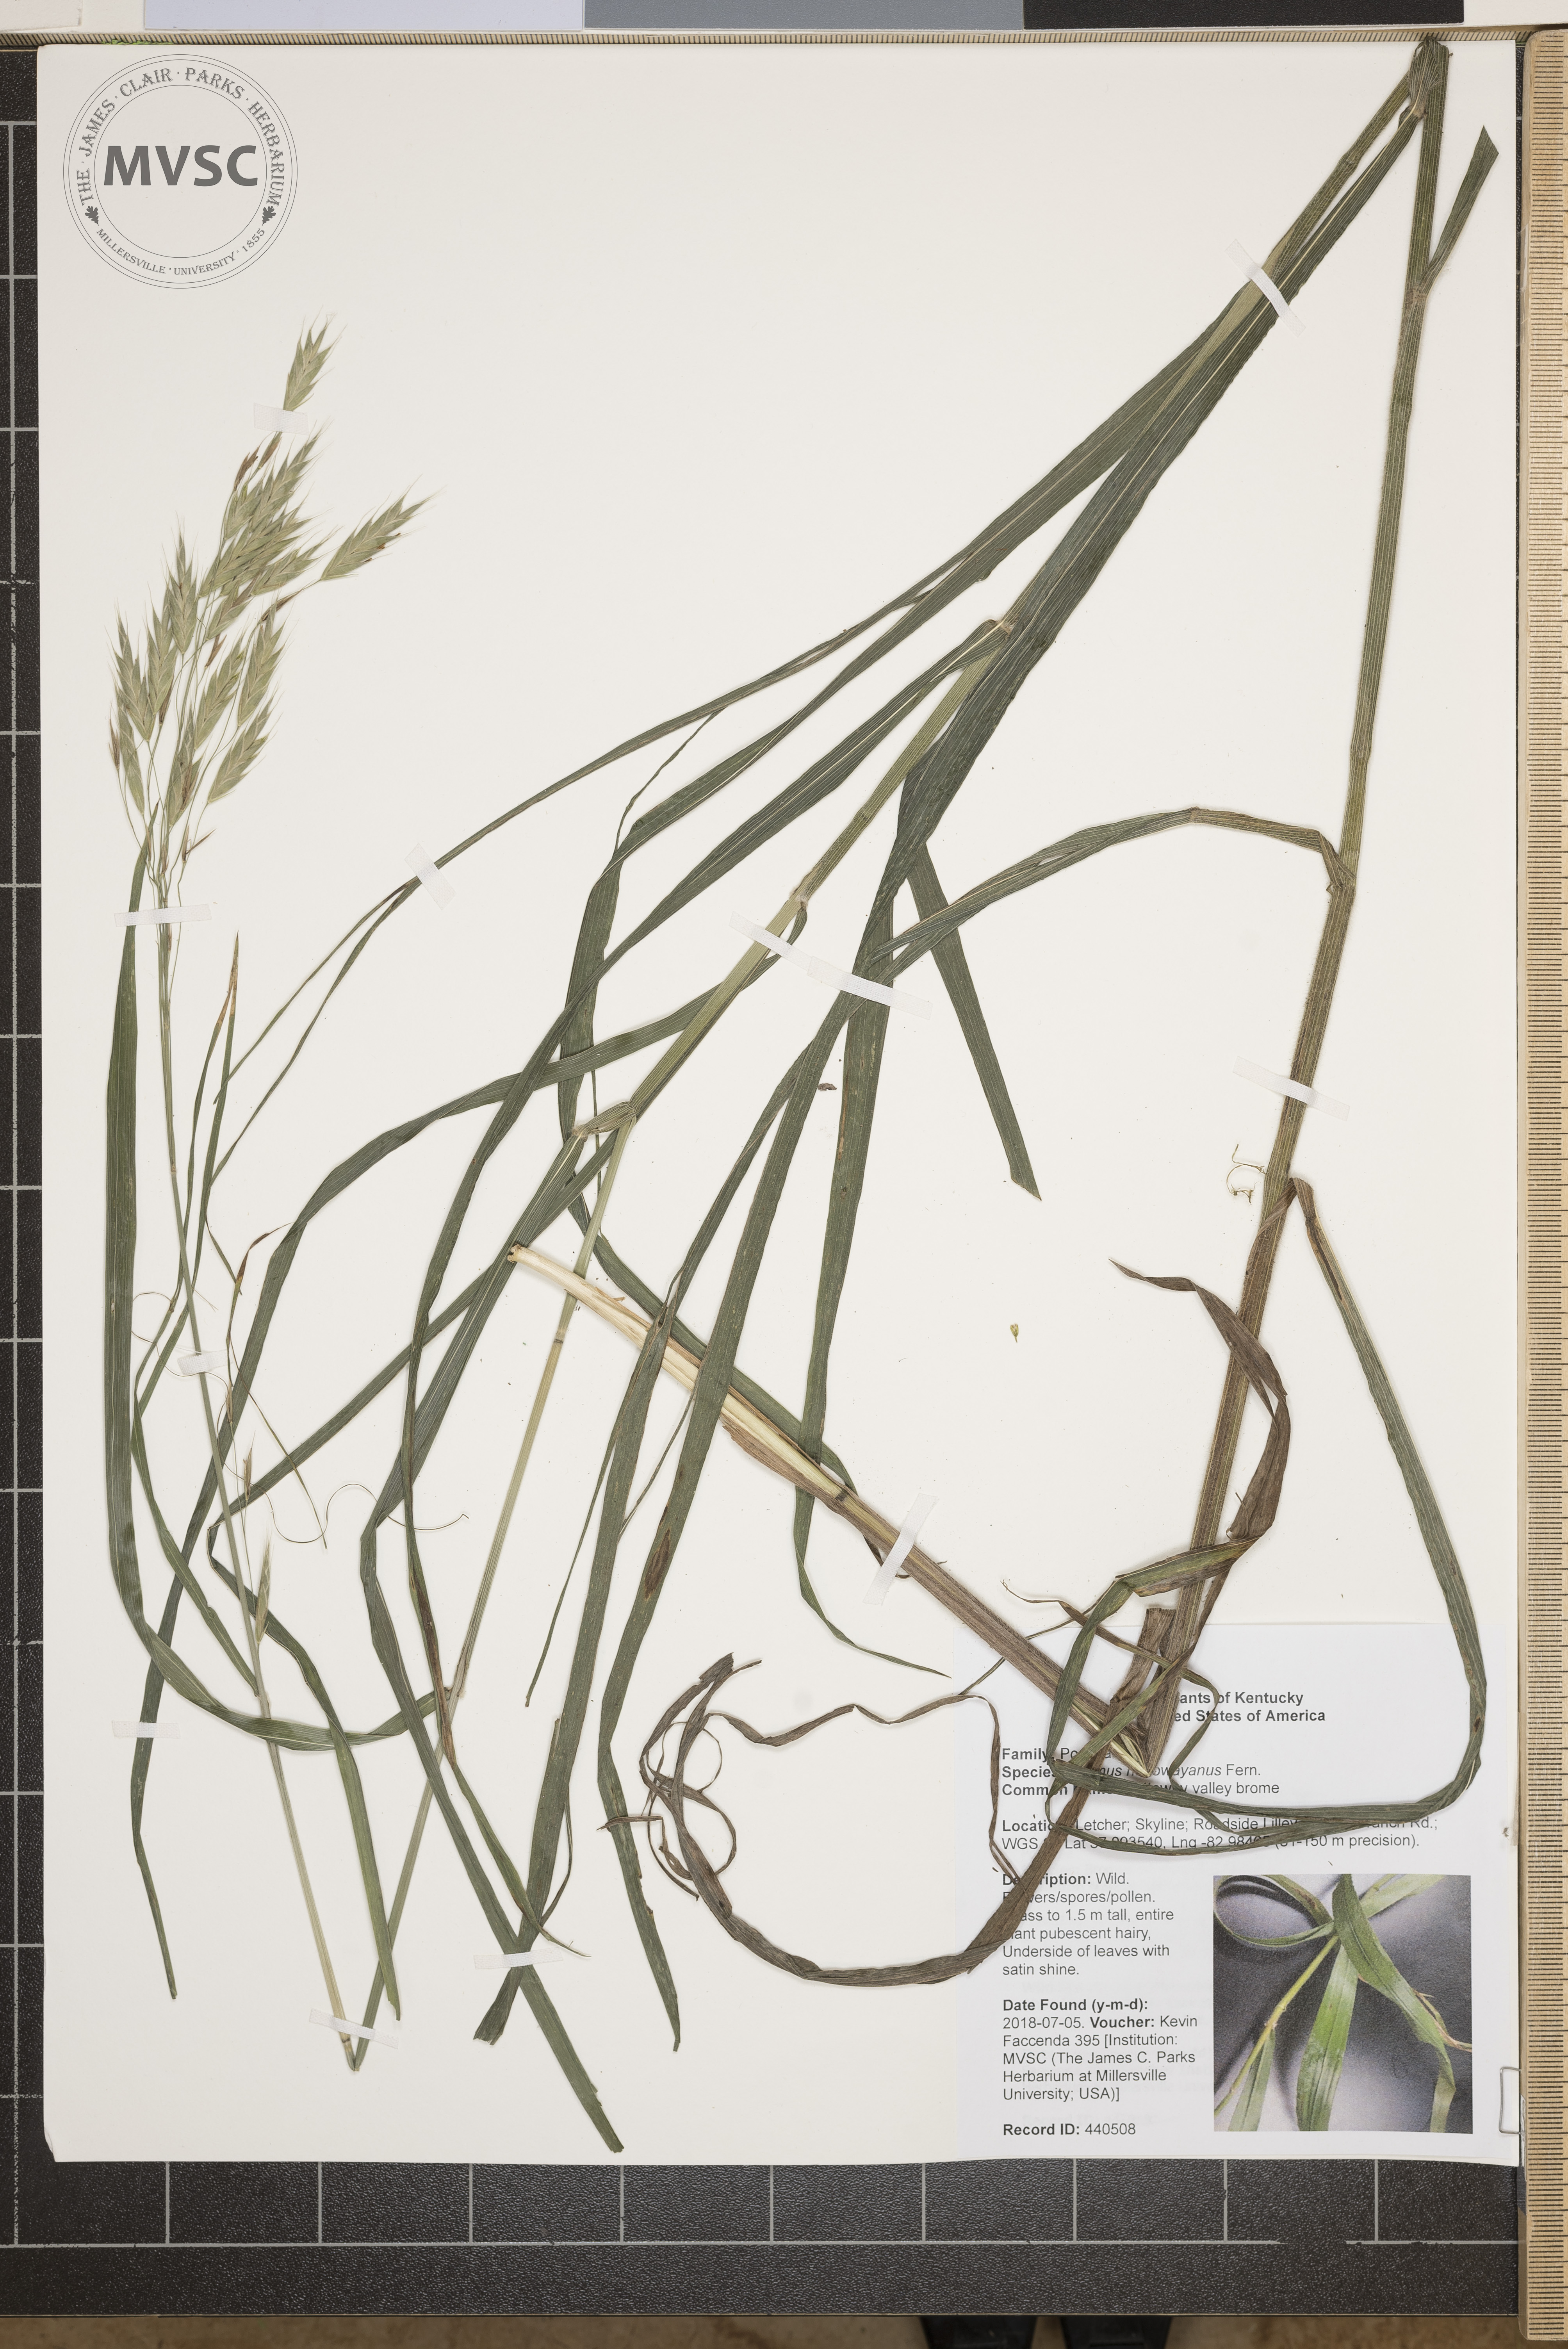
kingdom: Plantae
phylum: Tracheophyta
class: Liliopsida
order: Poales
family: Poaceae
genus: Bromus
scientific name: Bromus nottowayanus
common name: Nottoway valley brome
